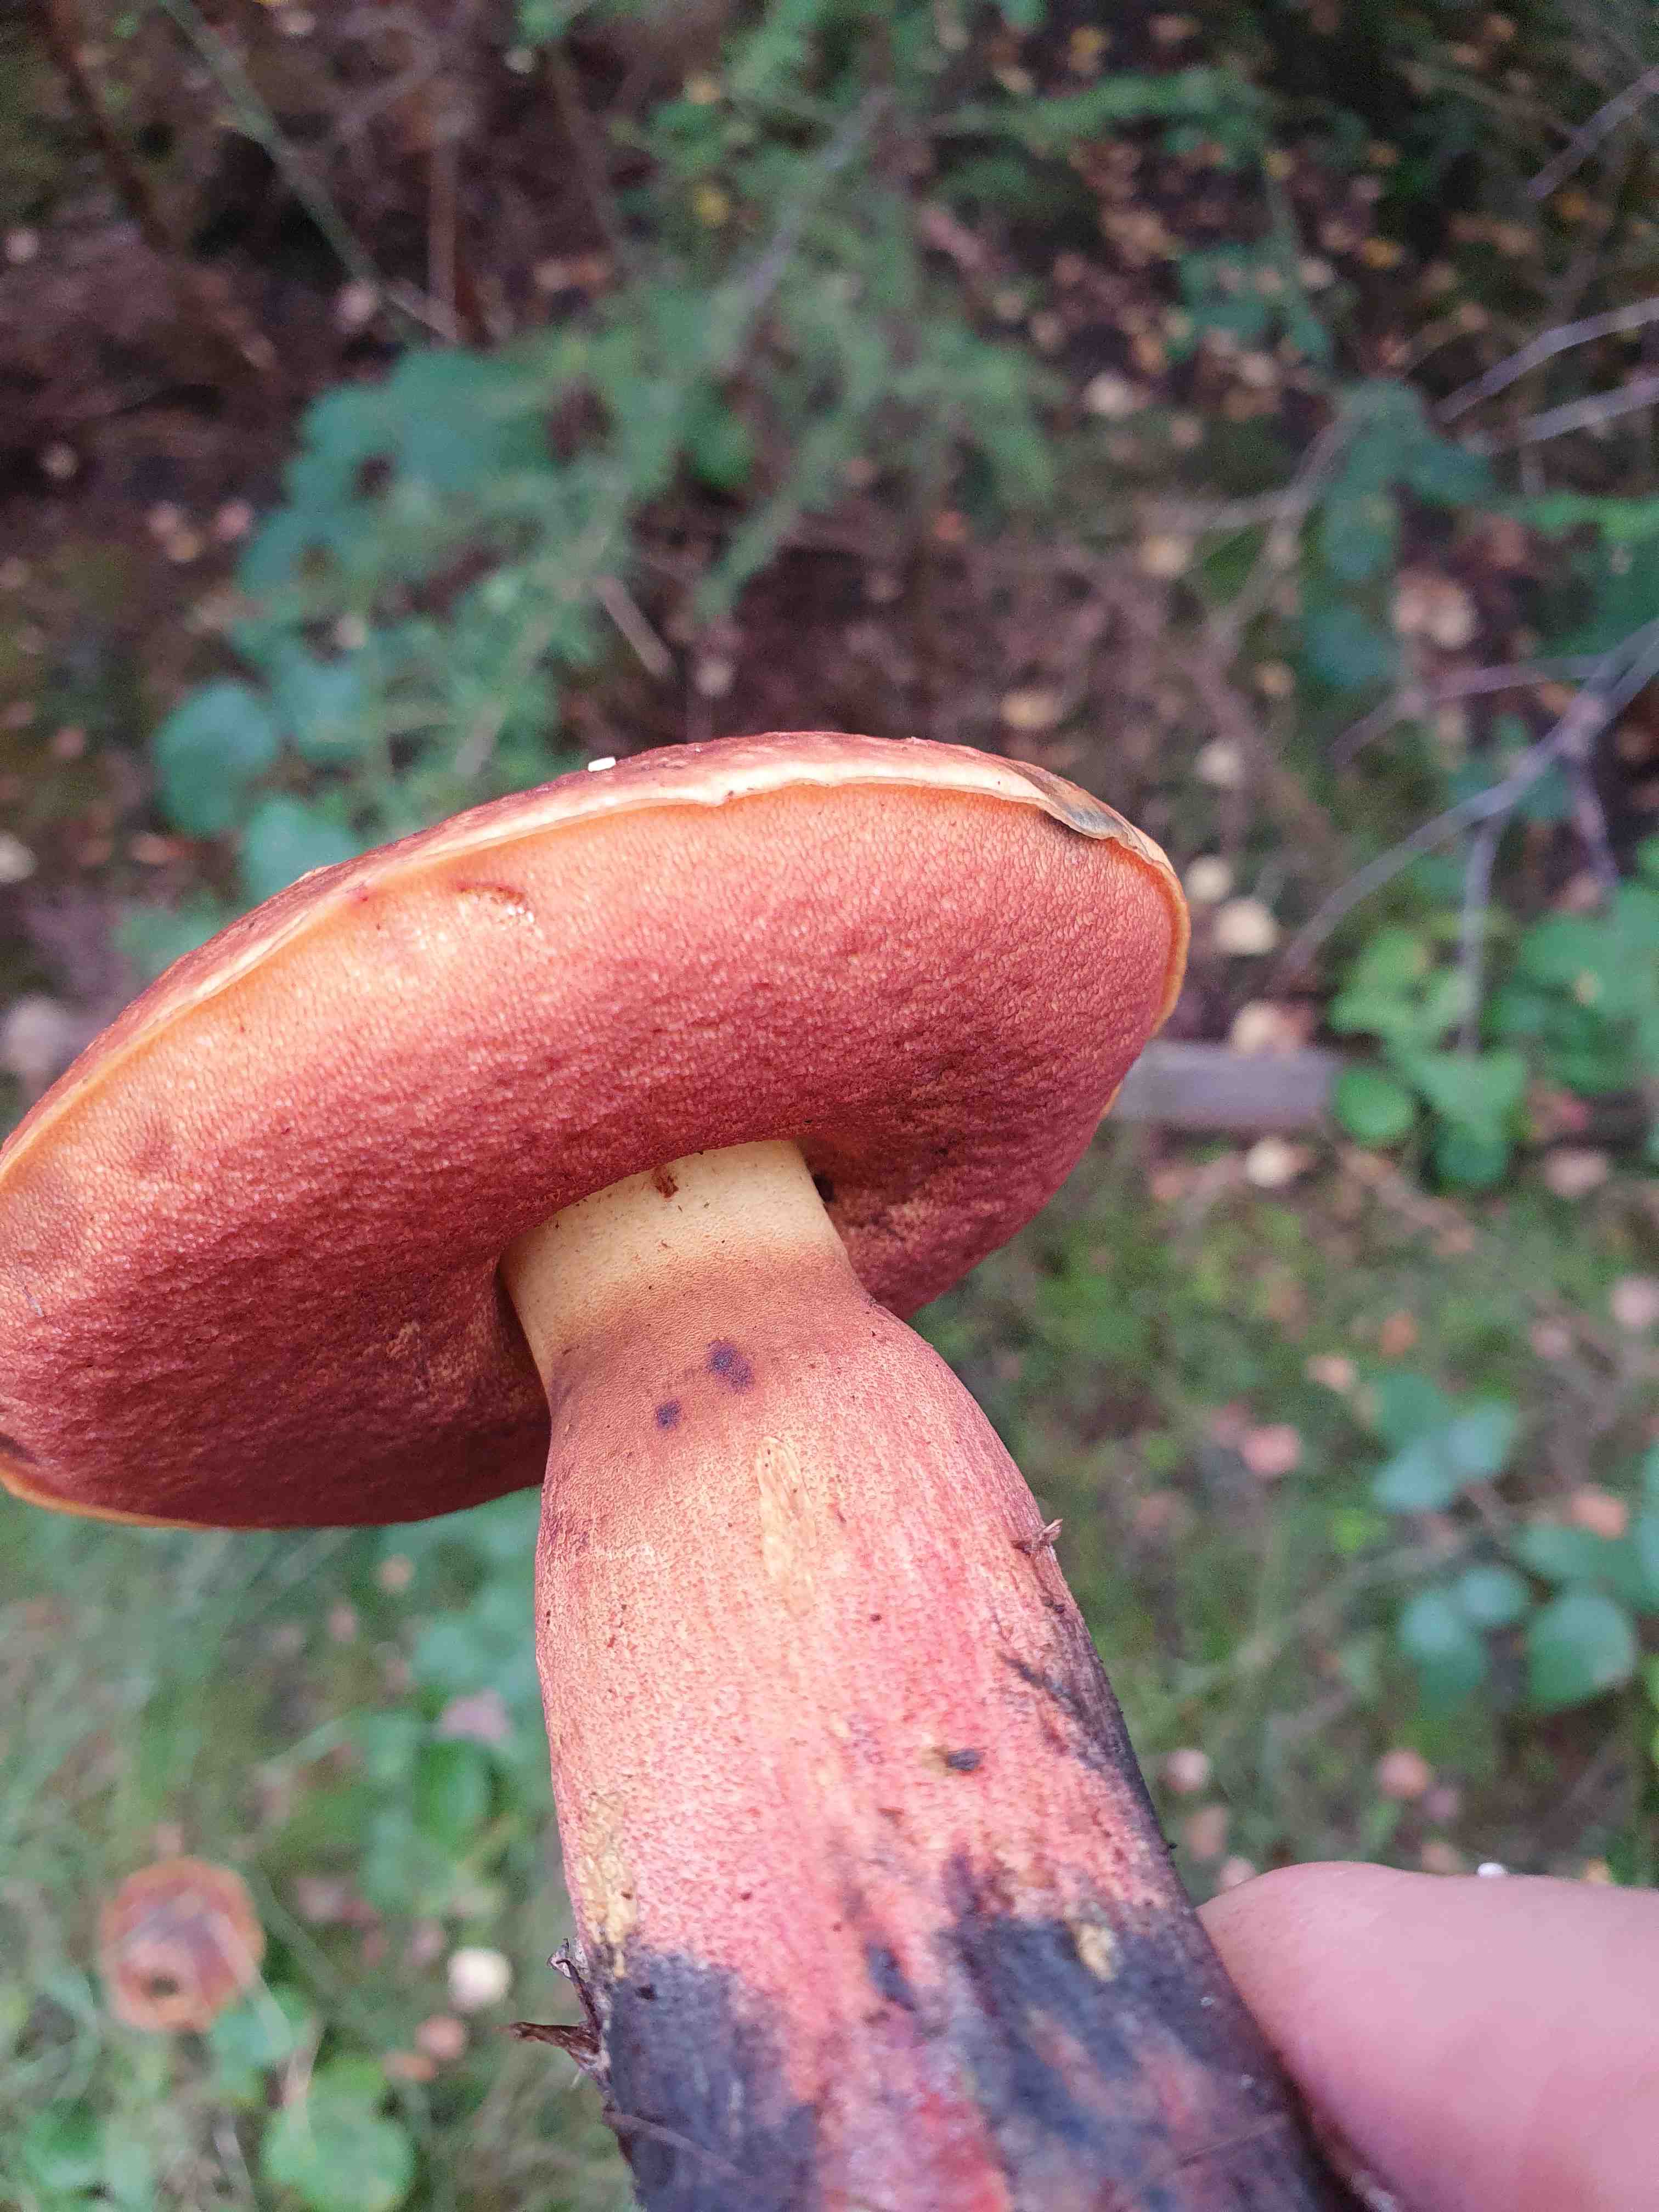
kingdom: Fungi
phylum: Basidiomycota
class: Agaricomycetes
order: Boletales
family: Boletaceae
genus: Neoboletus
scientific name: Neoboletus erythropus
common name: punktstokket indigorørhat
